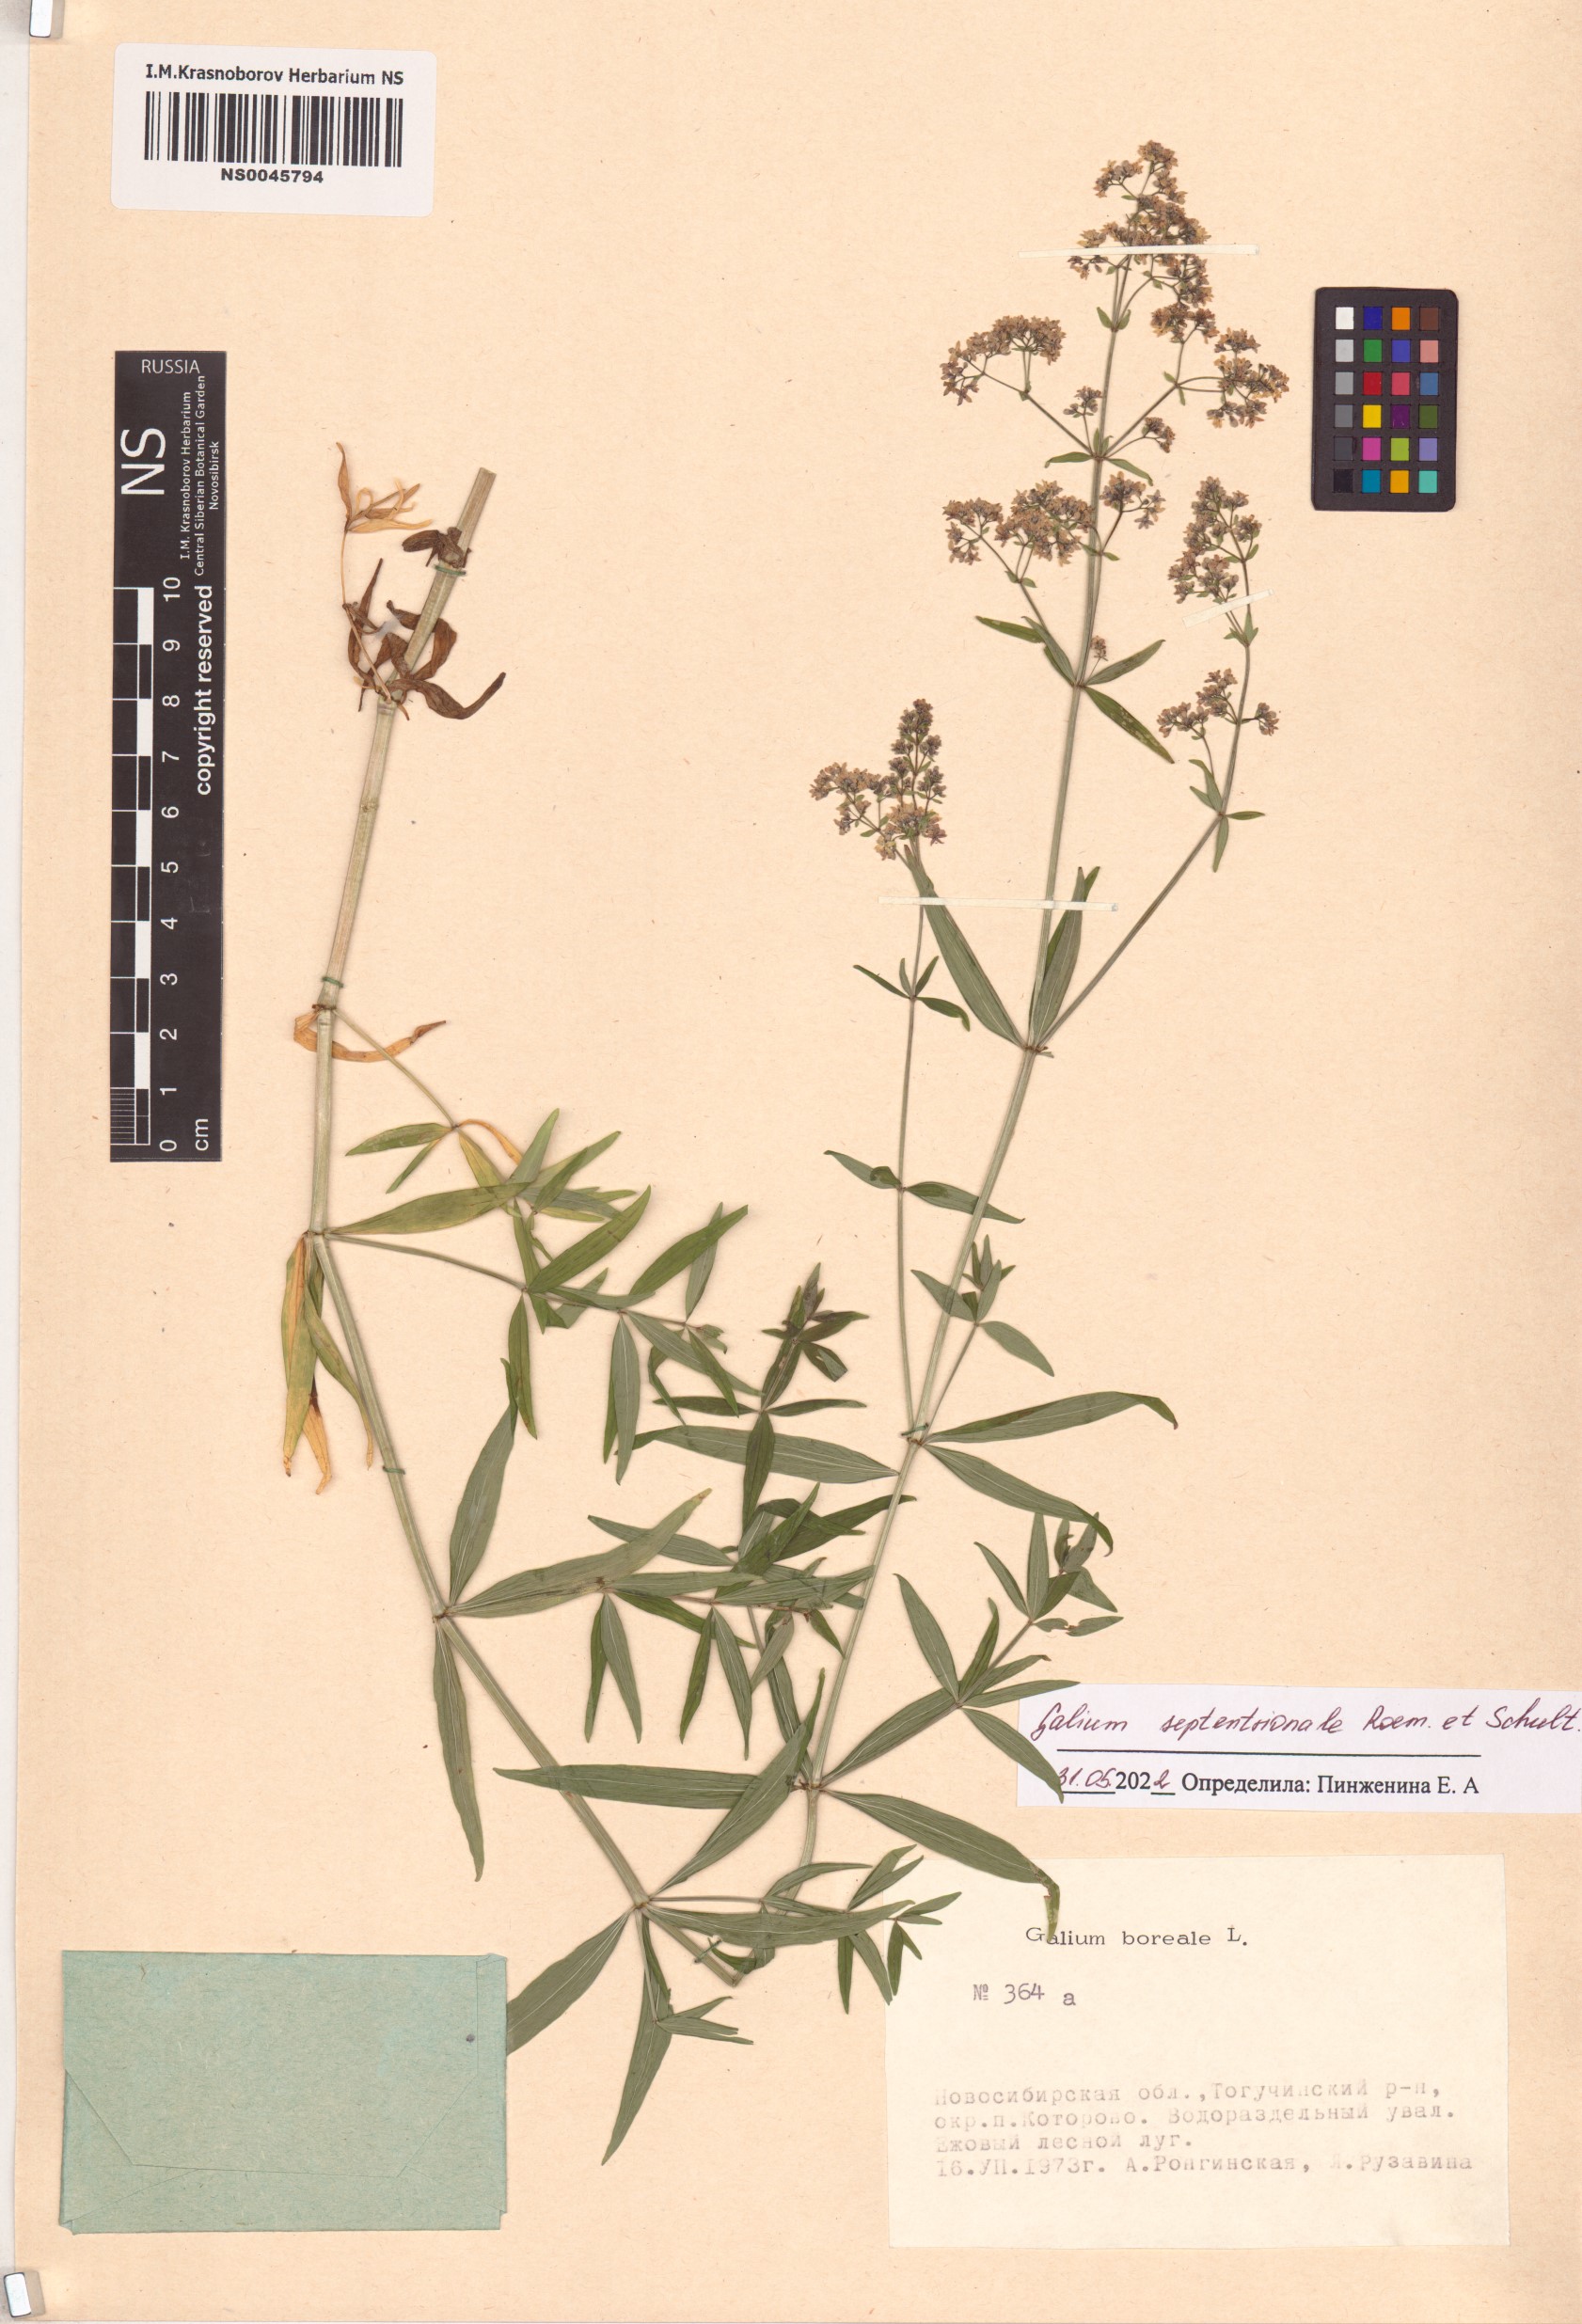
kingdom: Plantae
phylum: Tracheophyta
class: Magnoliopsida
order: Gentianales
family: Rubiaceae
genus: Galium
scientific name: Galium boreale
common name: Northern bedstraw
